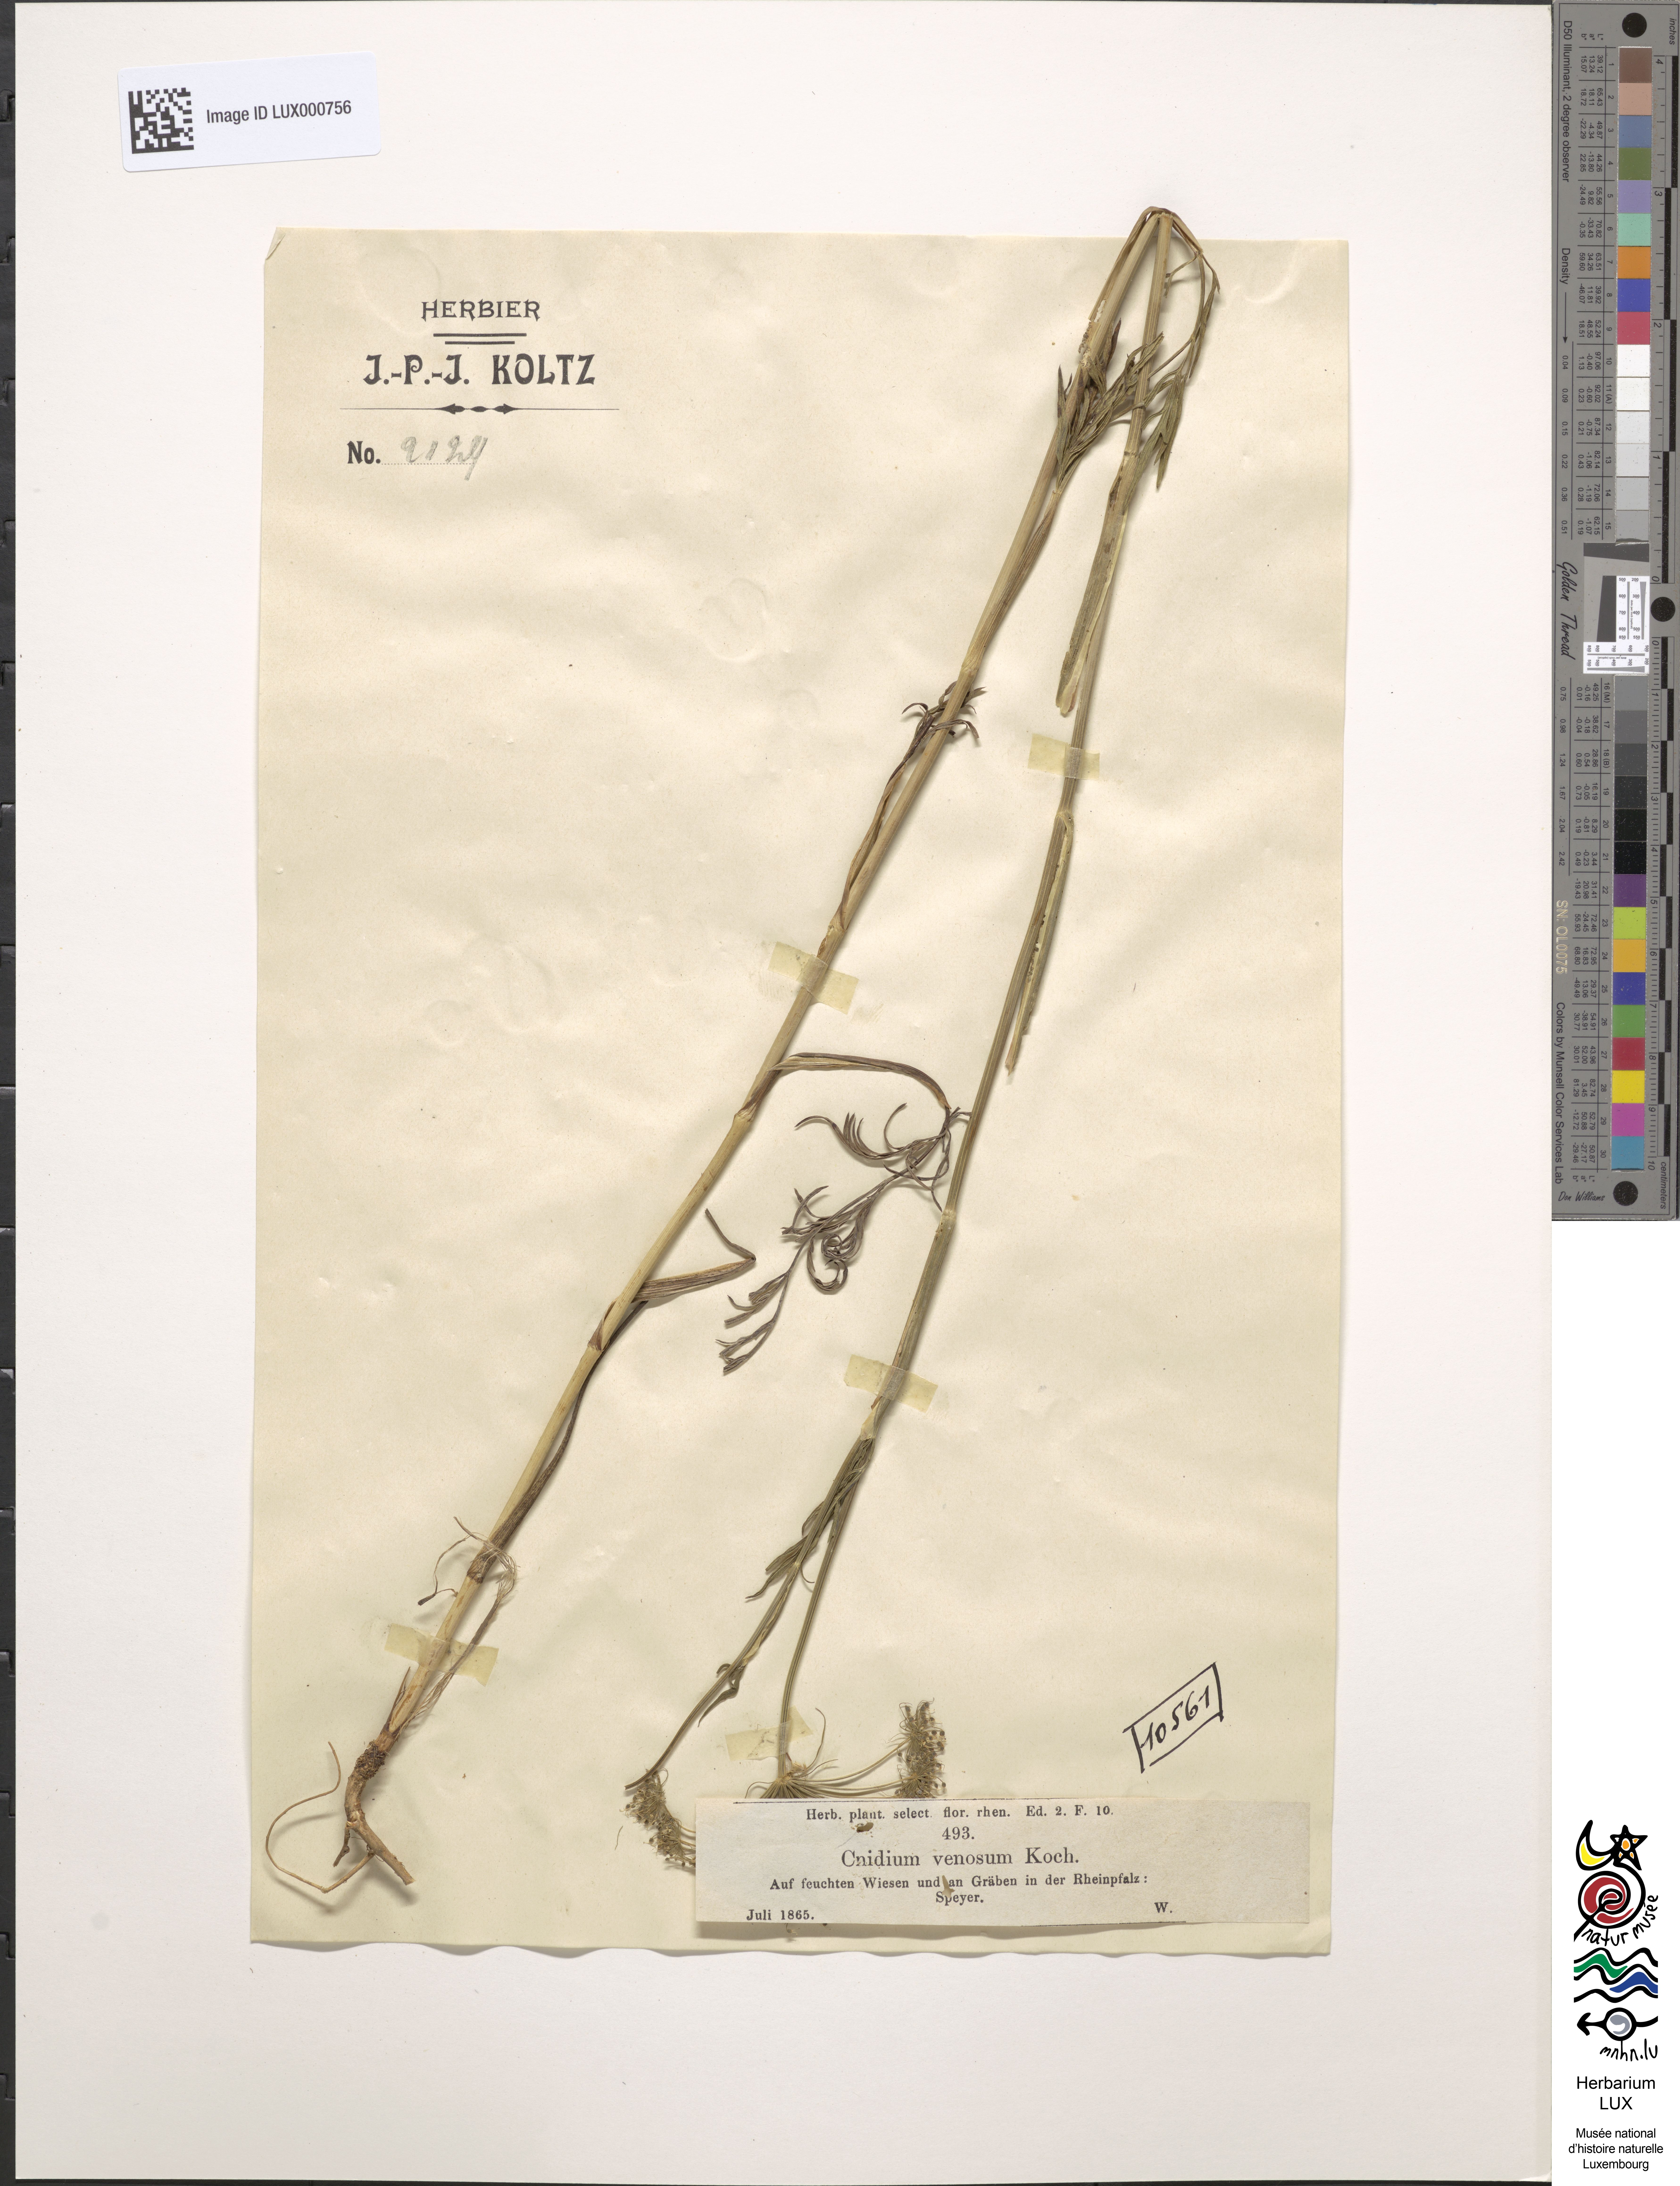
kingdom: Plantae
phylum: Tracheophyta
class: Magnoliopsida
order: Apiales
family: Apiaceae
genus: Kadenia
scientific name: Kadenia dubia
